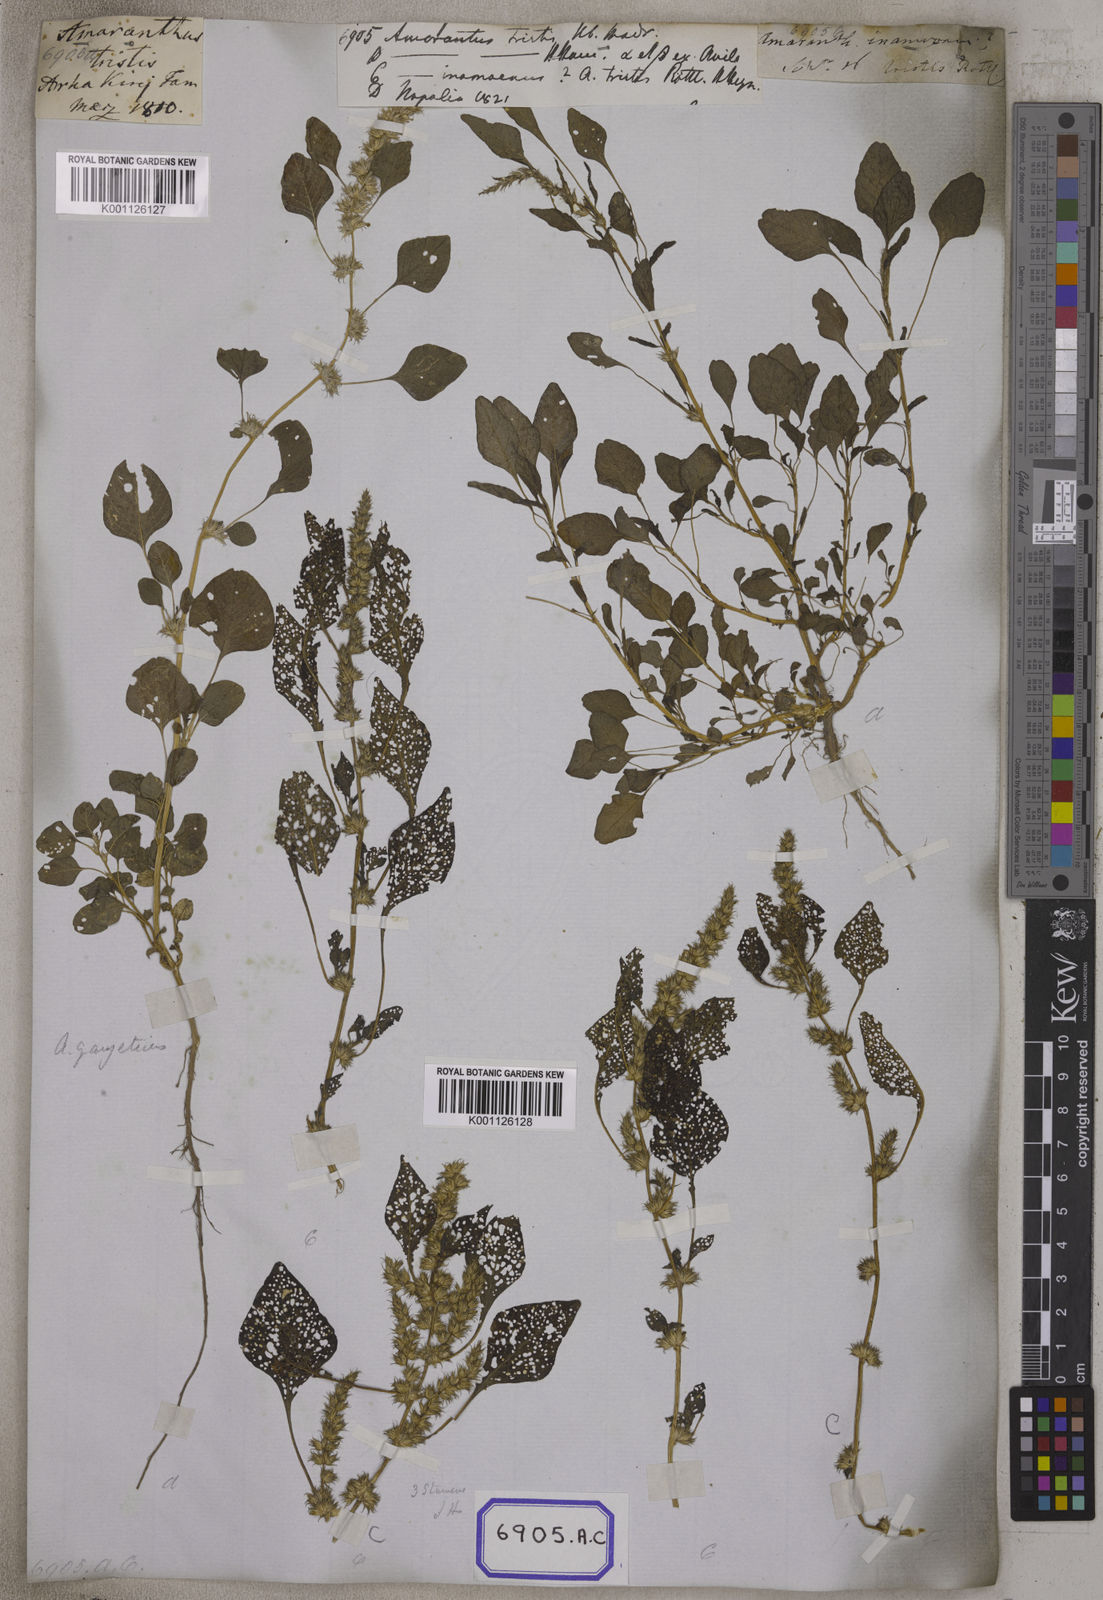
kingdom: Plantae
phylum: Tracheophyta
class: Magnoliopsida
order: Caryophyllales
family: Amaranthaceae
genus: Amaranthus
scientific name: Amaranthus
